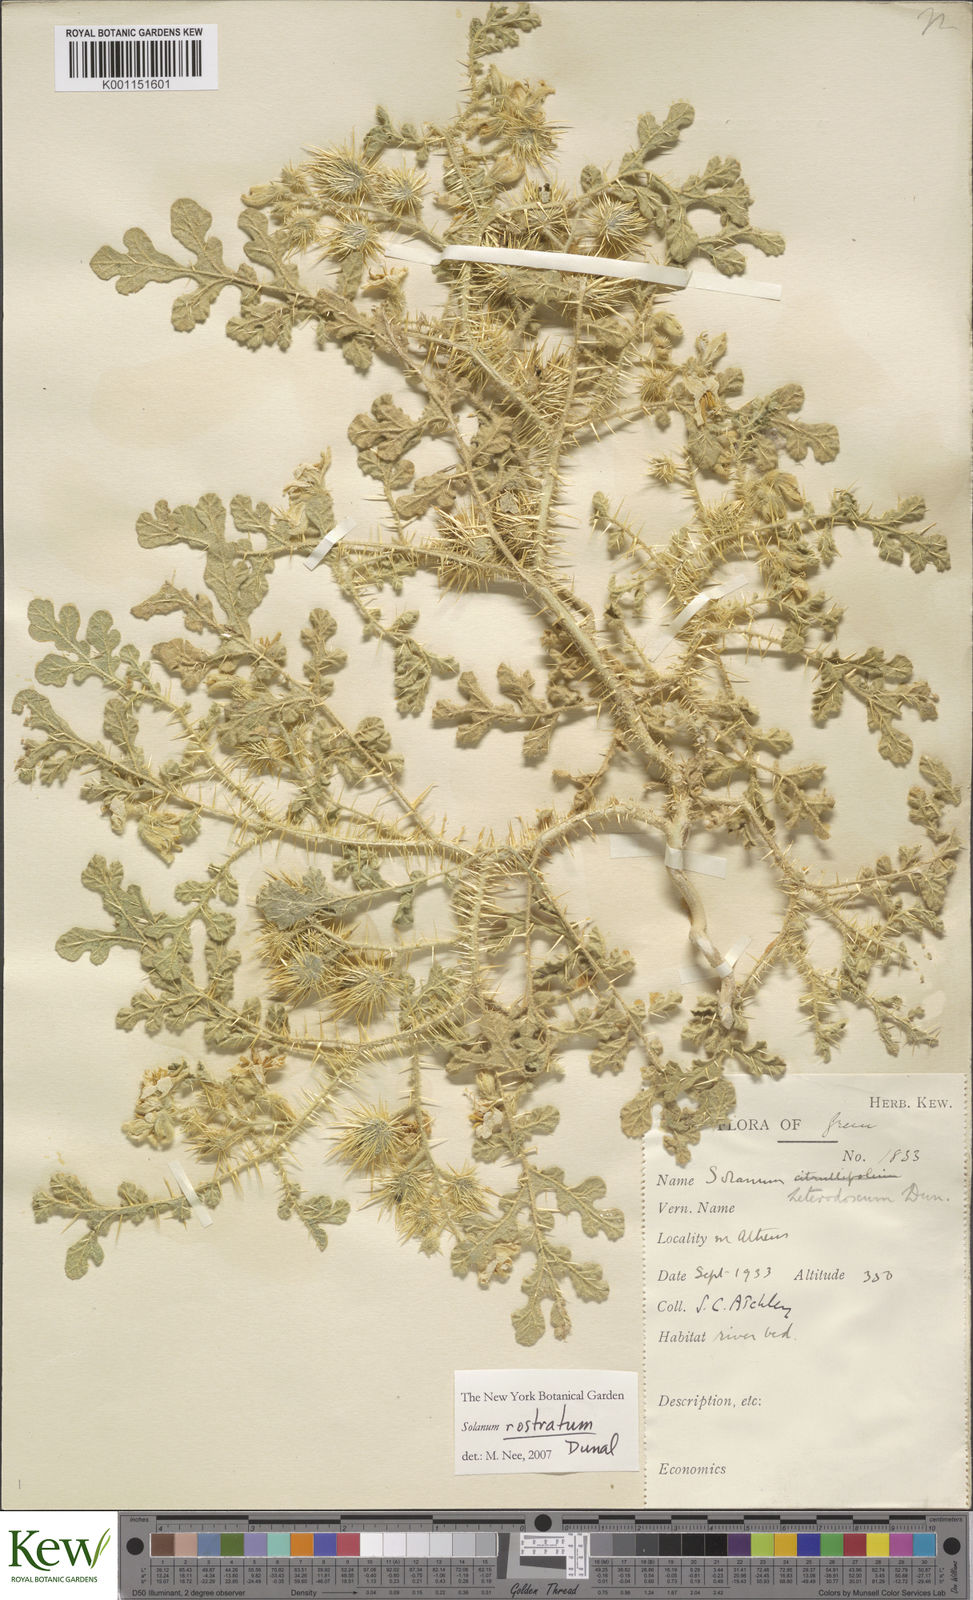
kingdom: Plantae
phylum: Tracheophyta
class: Magnoliopsida
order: Solanales
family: Solanaceae
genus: Solanum
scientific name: Solanum angustifolium
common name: Buffalobur nightshade
